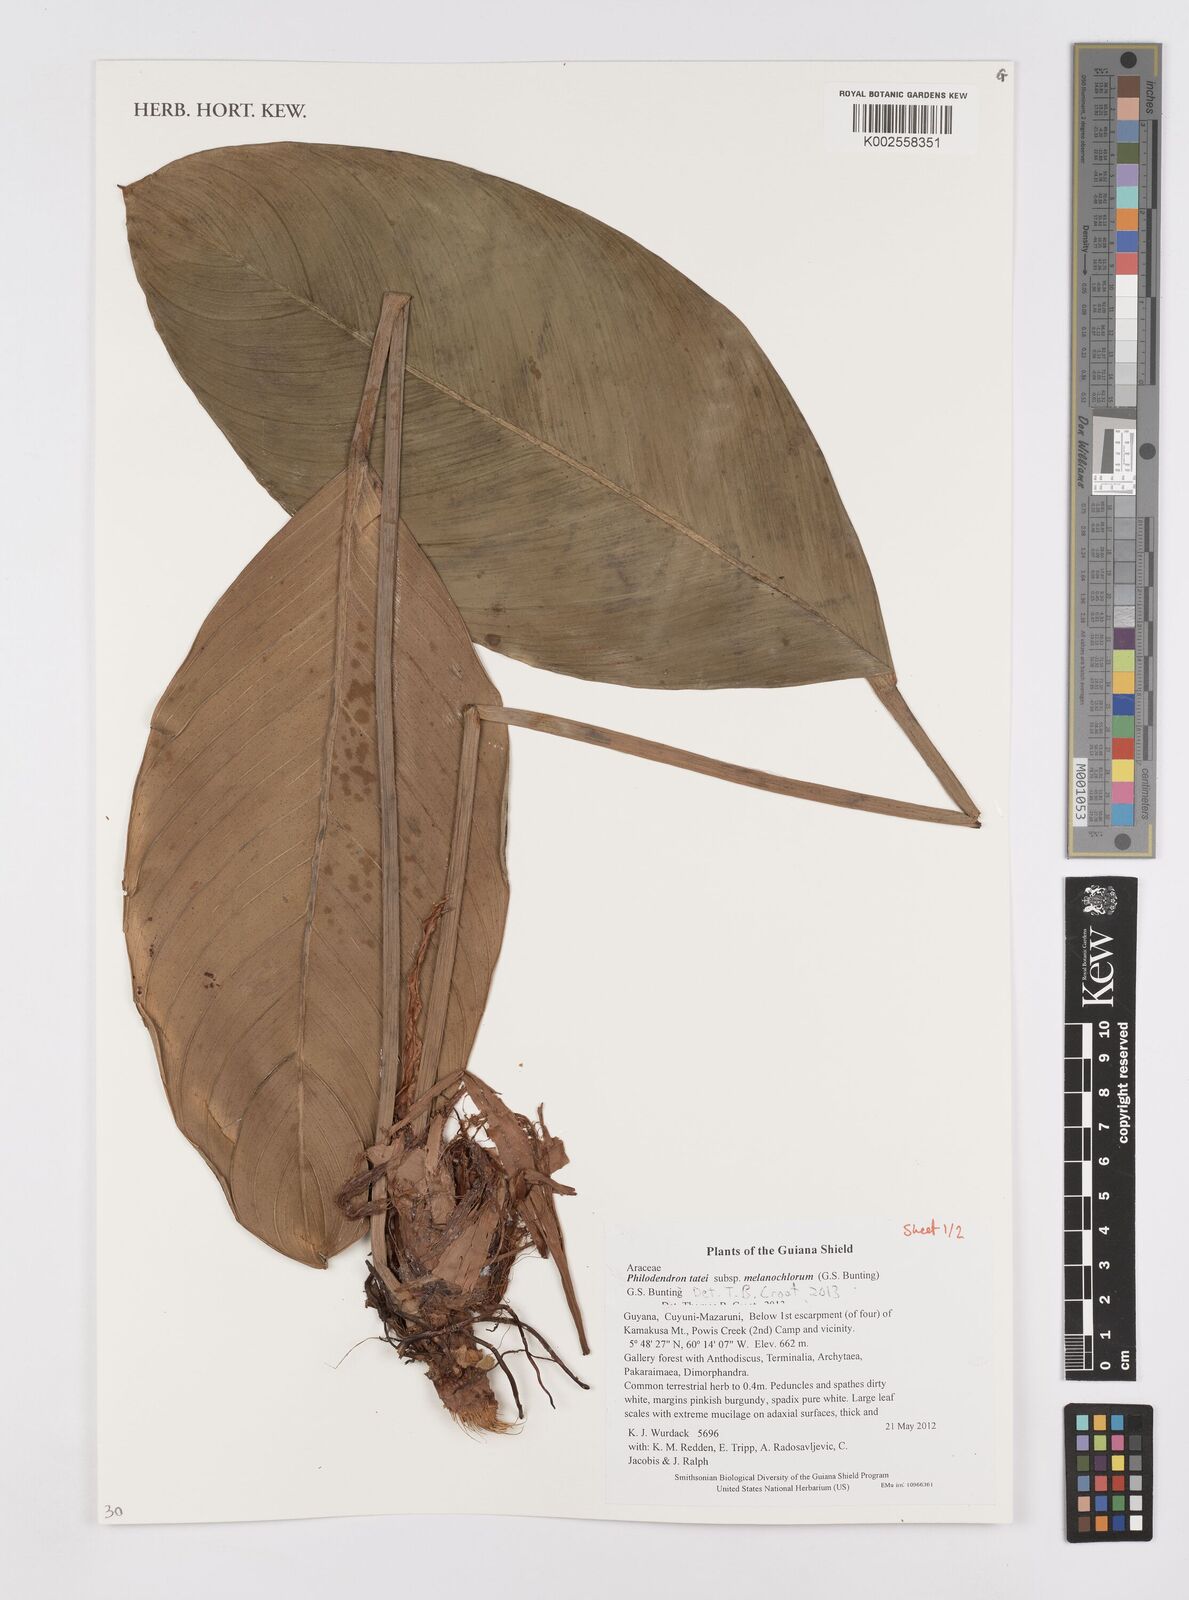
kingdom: Plantae
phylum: Tracheophyta
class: Liliopsida
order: Alismatales
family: Araceae
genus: Philodendron
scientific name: Philodendron tatei
